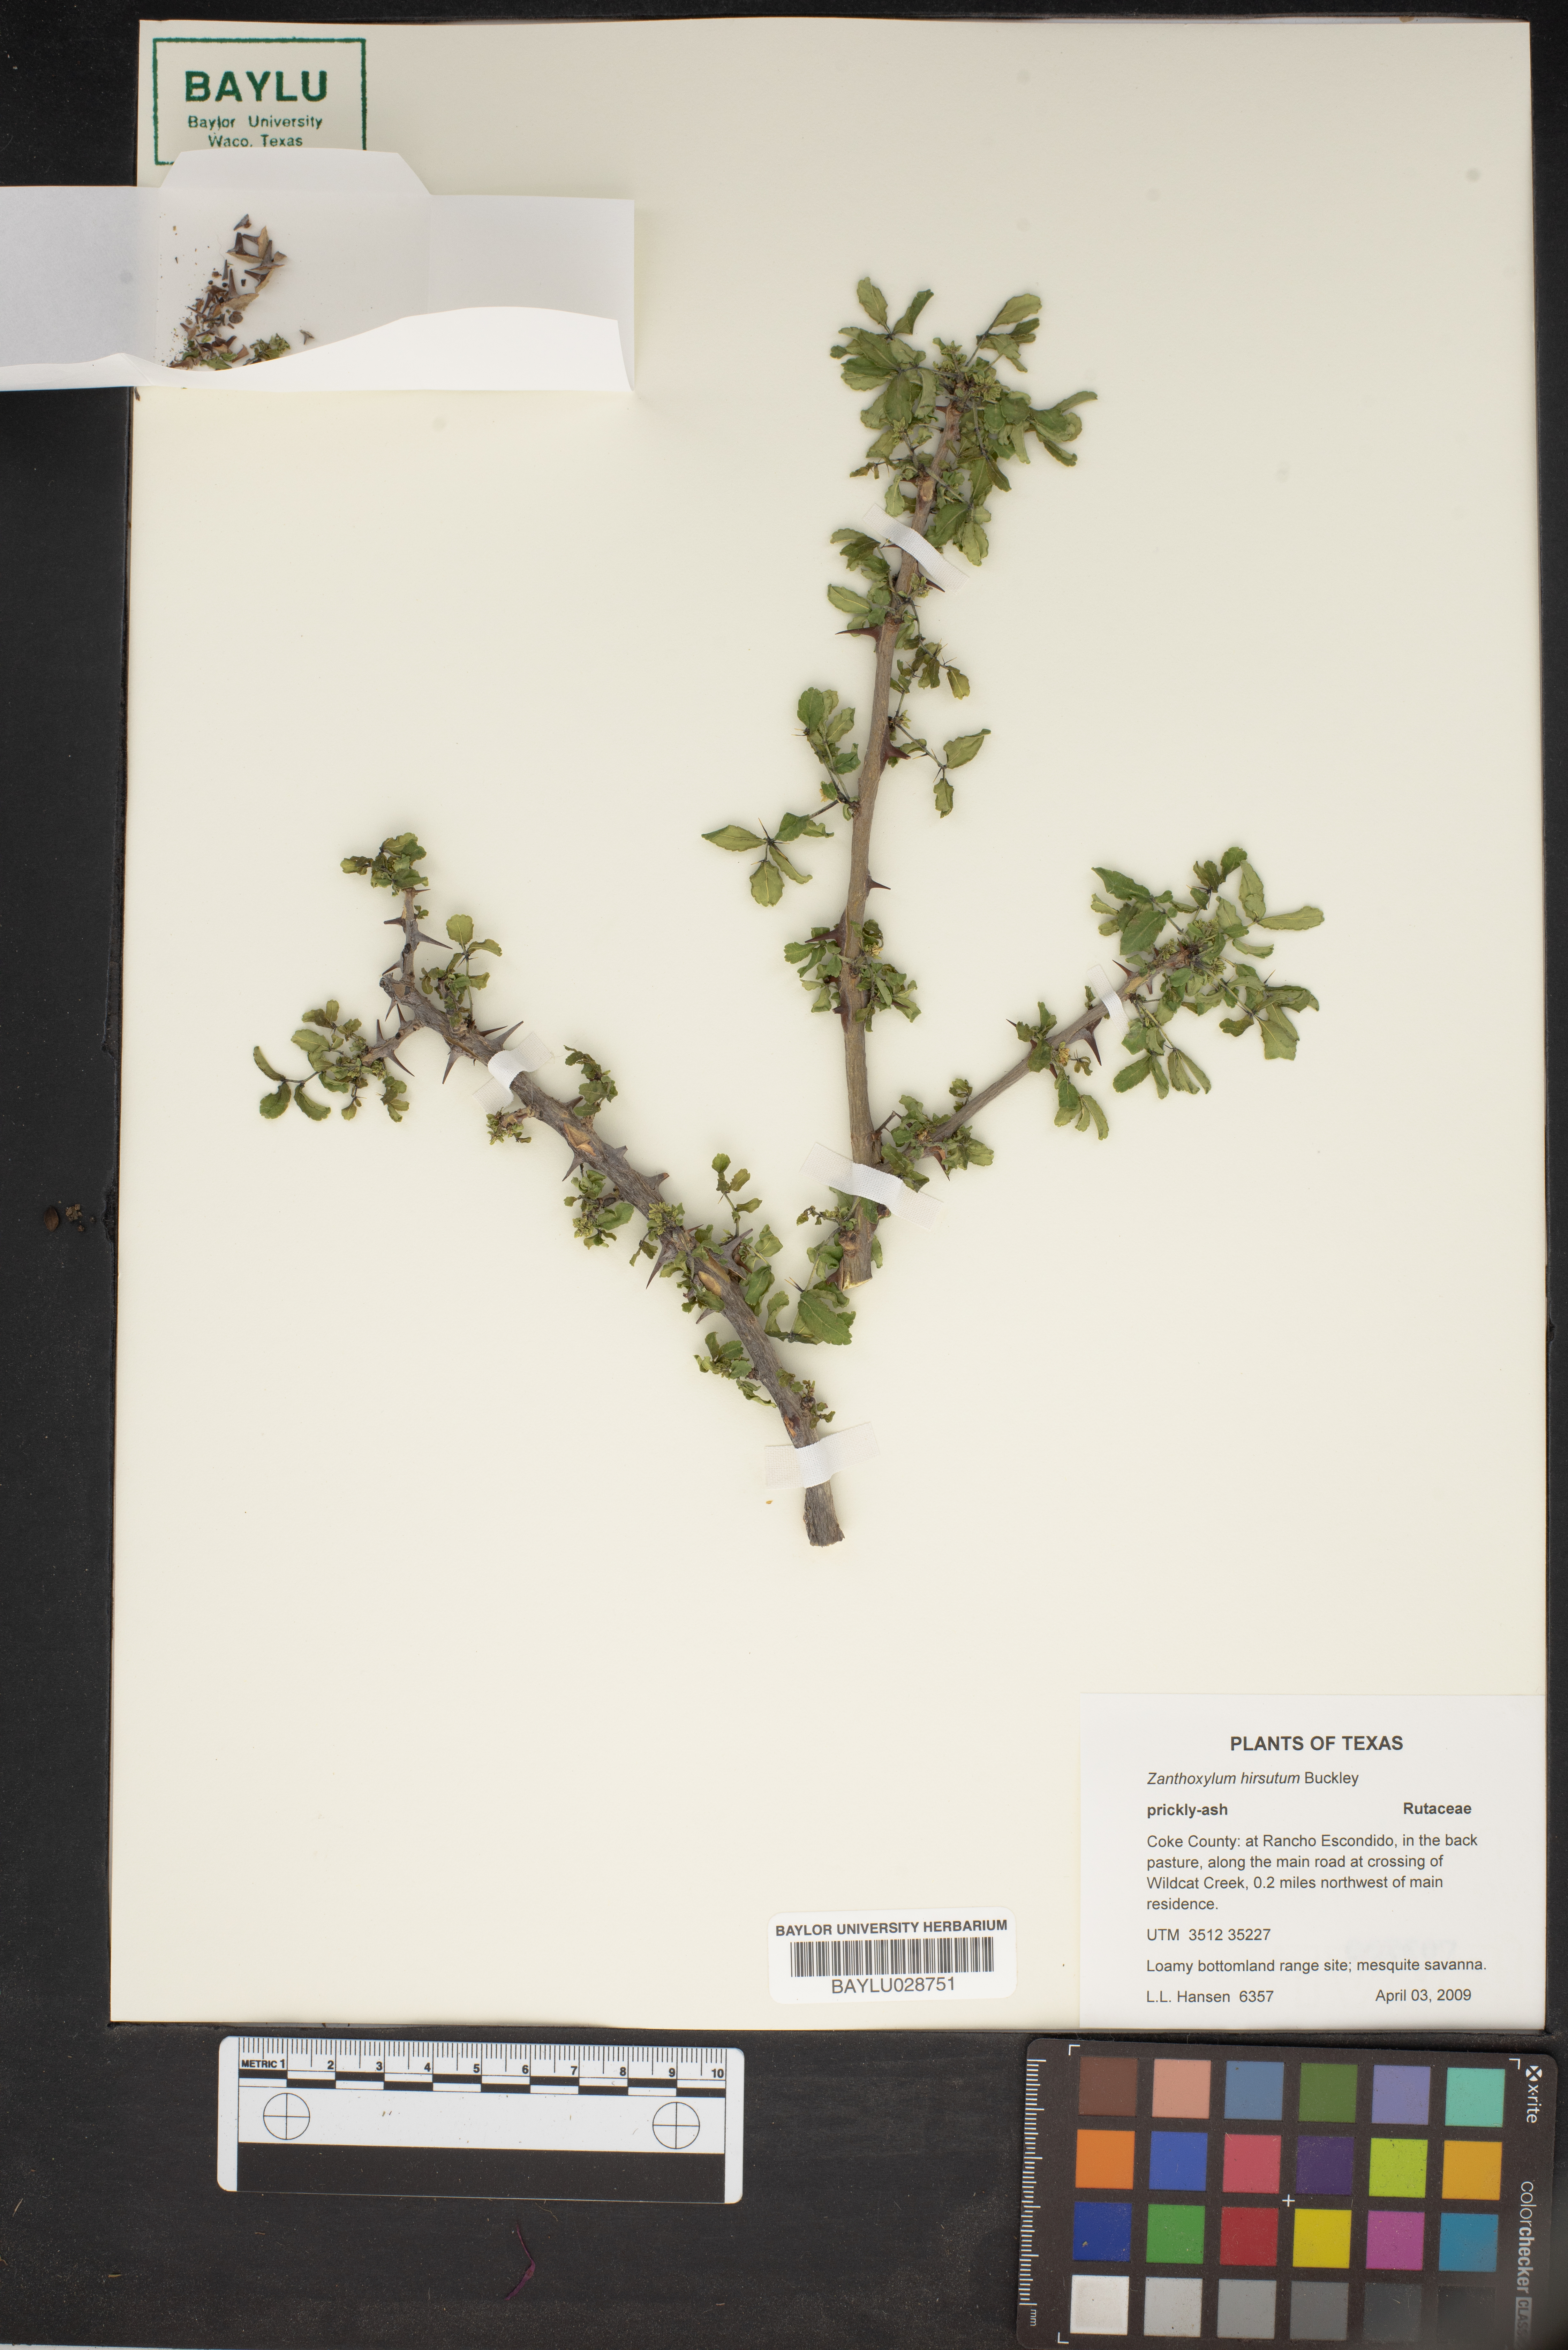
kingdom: Plantae
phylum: Tracheophyta
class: Magnoliopsida
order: Sapindales
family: Rutaceae
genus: Zanthoxylum
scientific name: Zanthoxylum clava-herculis
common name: Hercules'-club
